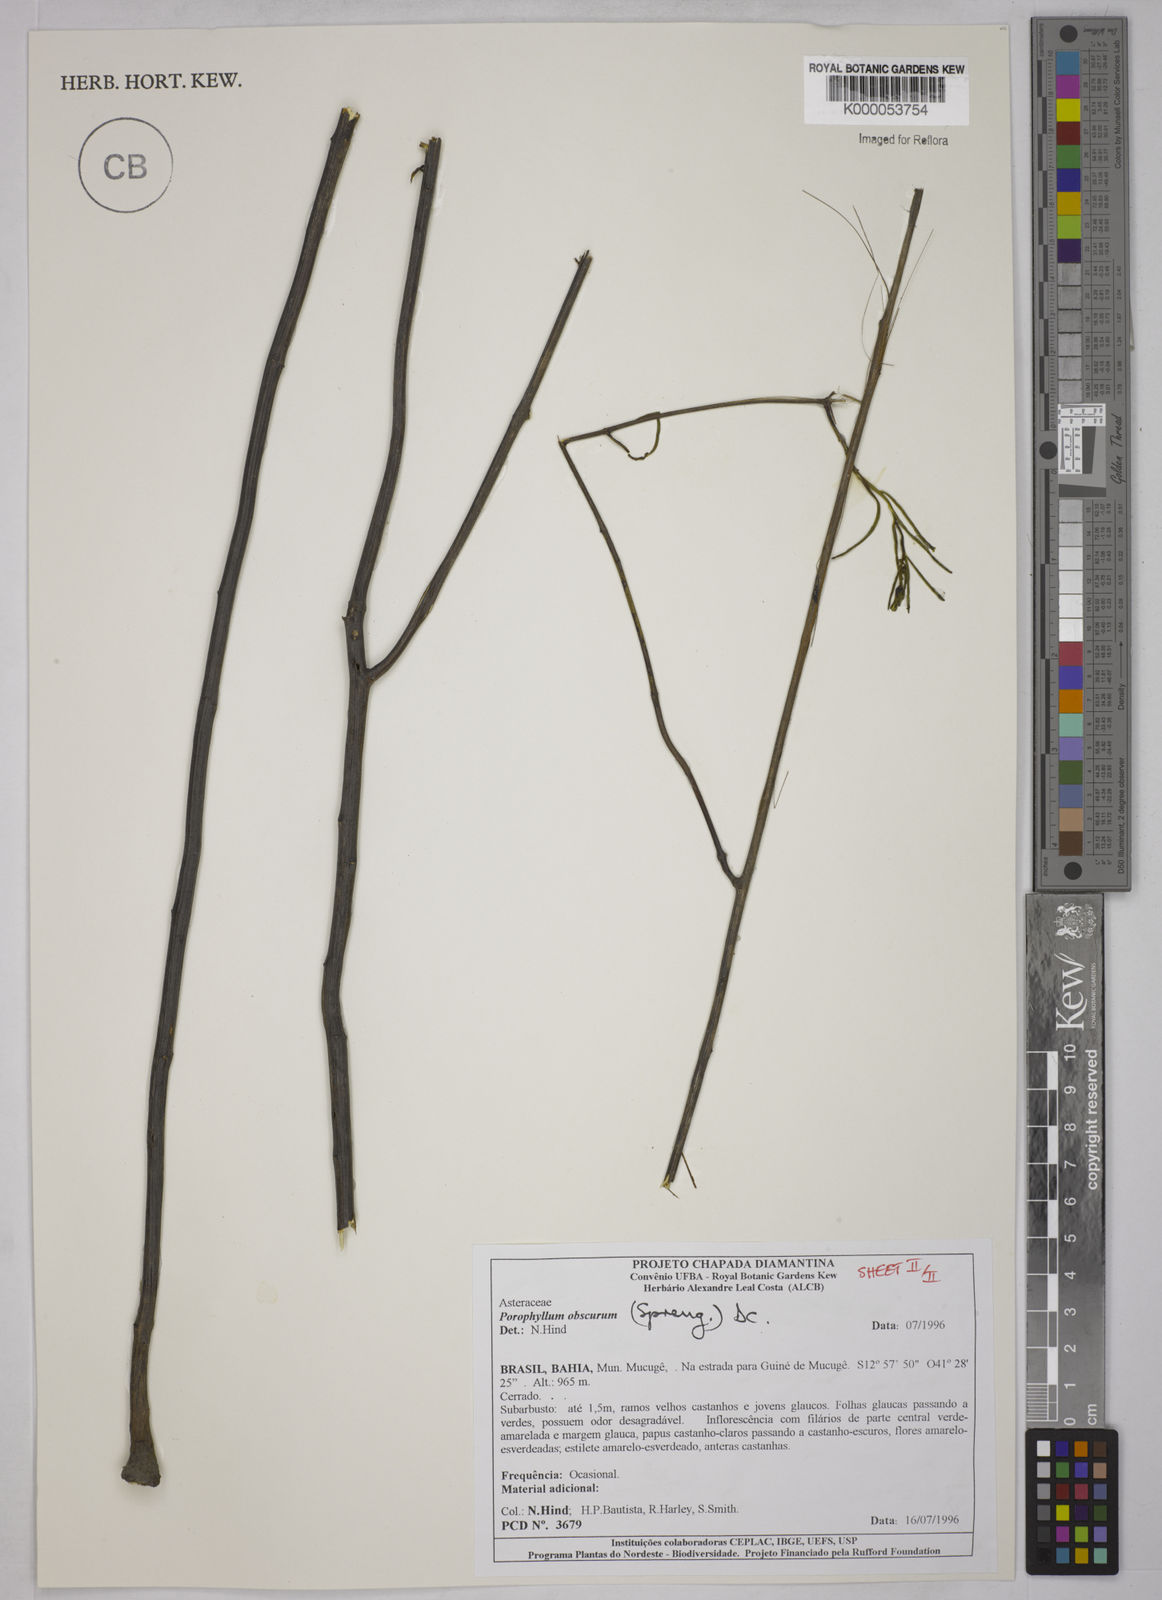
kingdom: Plantae
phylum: Tracheophyta
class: Magnoliopsida
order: Asterales
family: Asteraceae
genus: Porophyllum
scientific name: Porophyllum angustissimum
